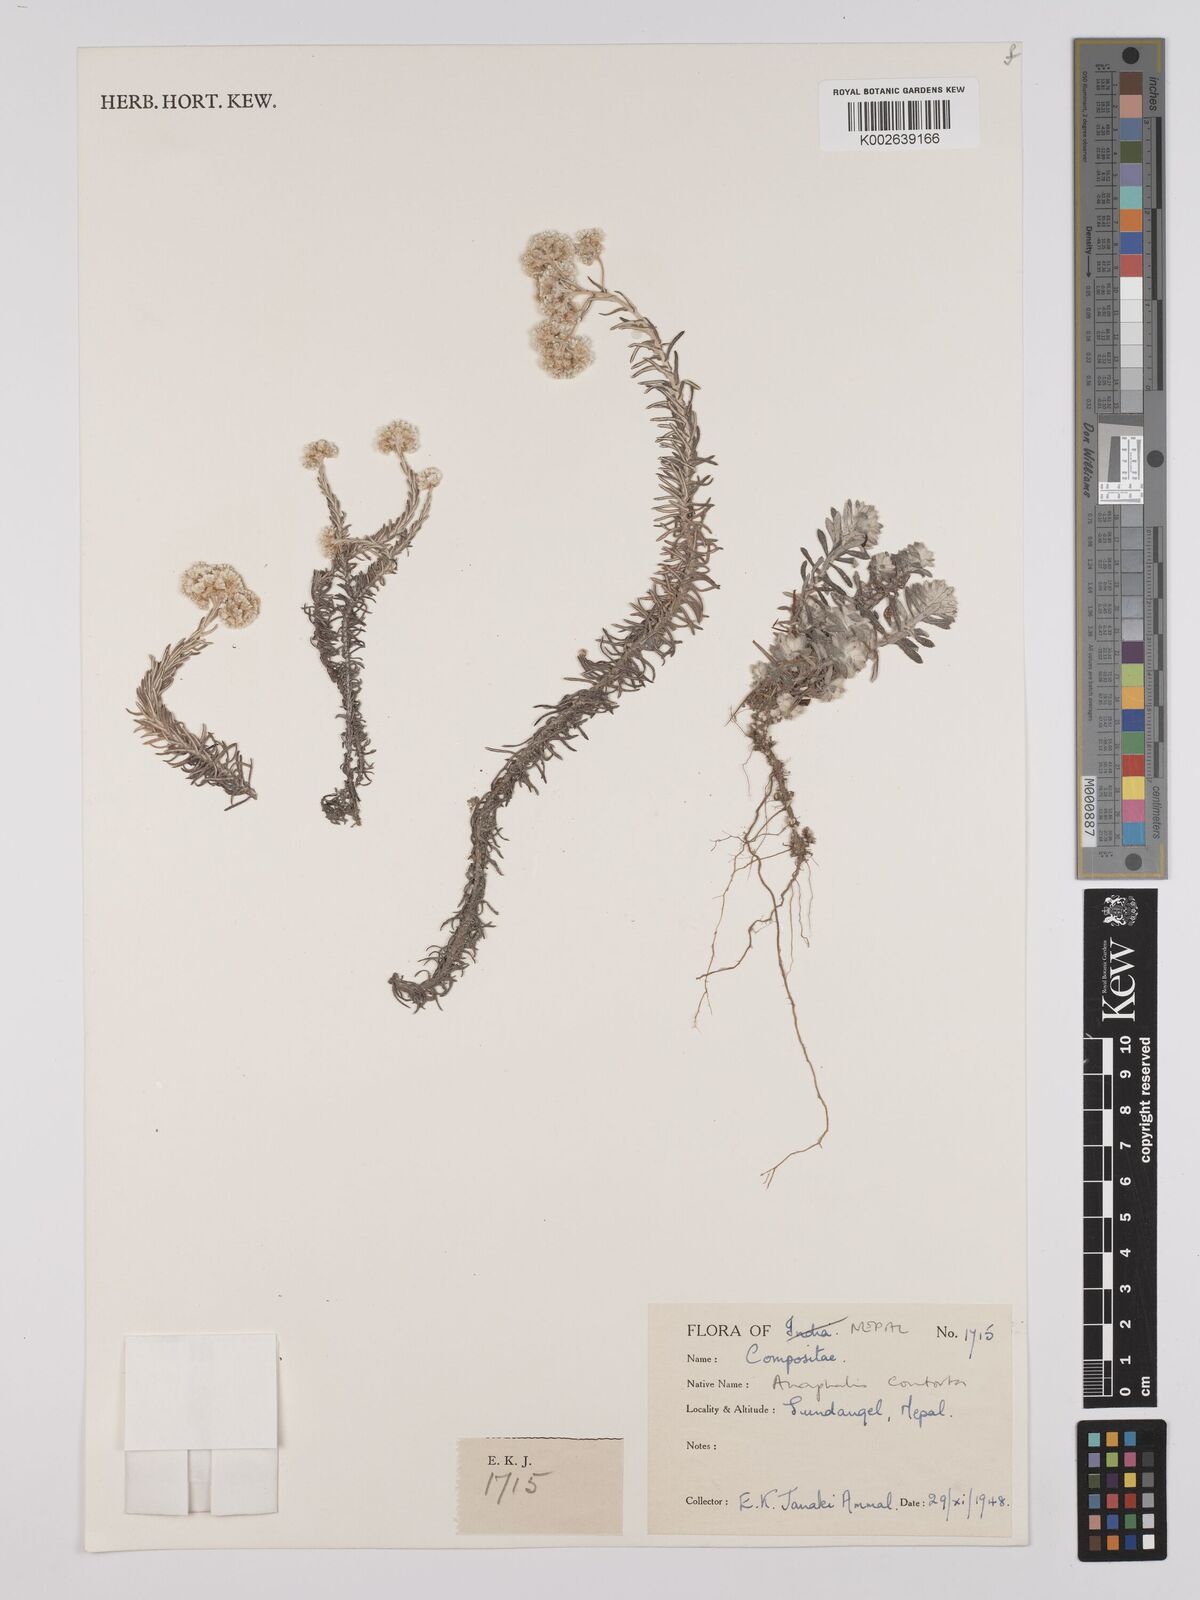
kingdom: Plantae
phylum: Tracheophyta
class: Magnoliopsida
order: Asterales
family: Asteraceae
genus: Anaphalis
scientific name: Anaphalis contorta
